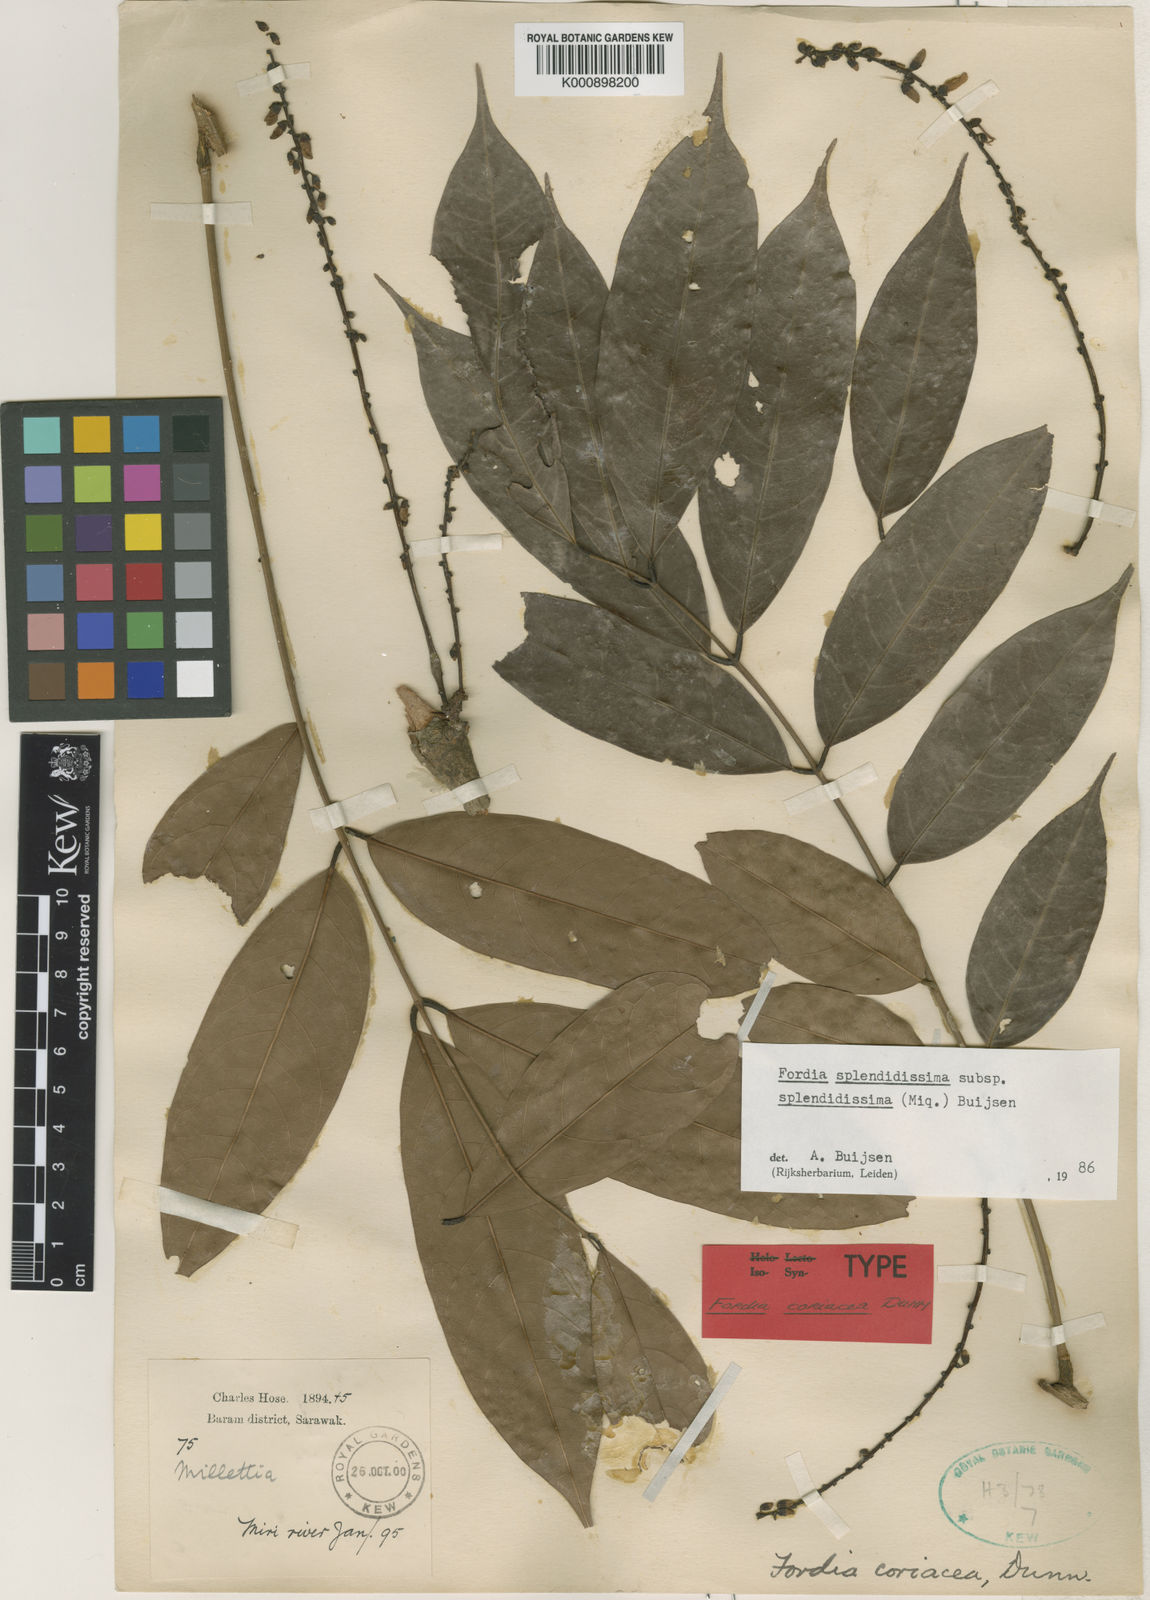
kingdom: Plantae
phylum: Tracheophyta
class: Magnoliopsida
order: Fabales
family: Fabaceae
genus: Fordia
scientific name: Fordia splendidissima
